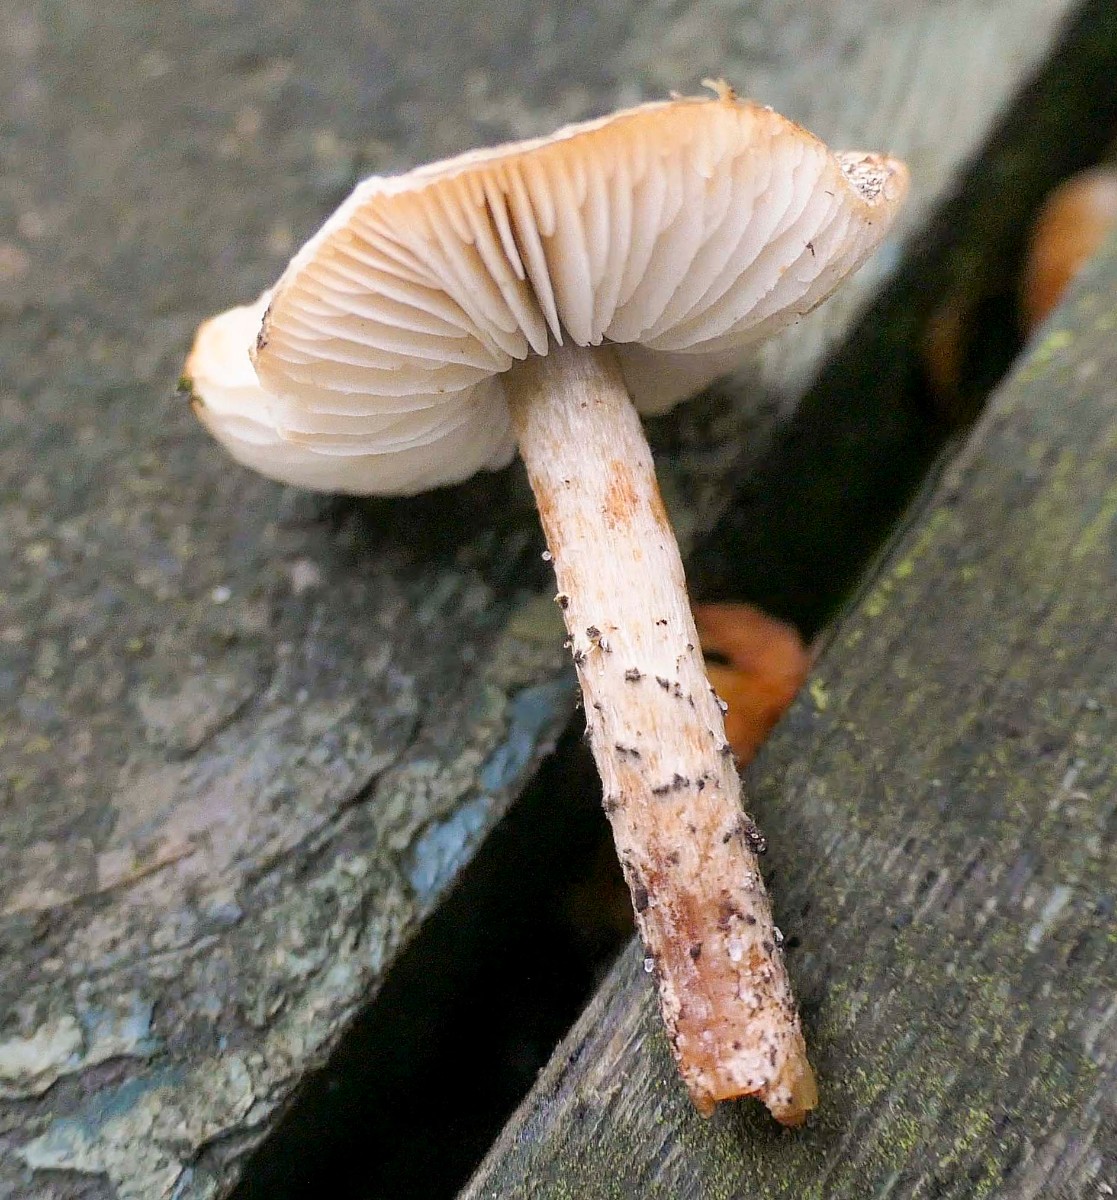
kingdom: Fungi
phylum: Basidiomycota
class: Agaricomycetes
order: Agaricales
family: Agaricaceae
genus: Lepiota
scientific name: Lepiota grangei
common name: grønskællet parasolhat
